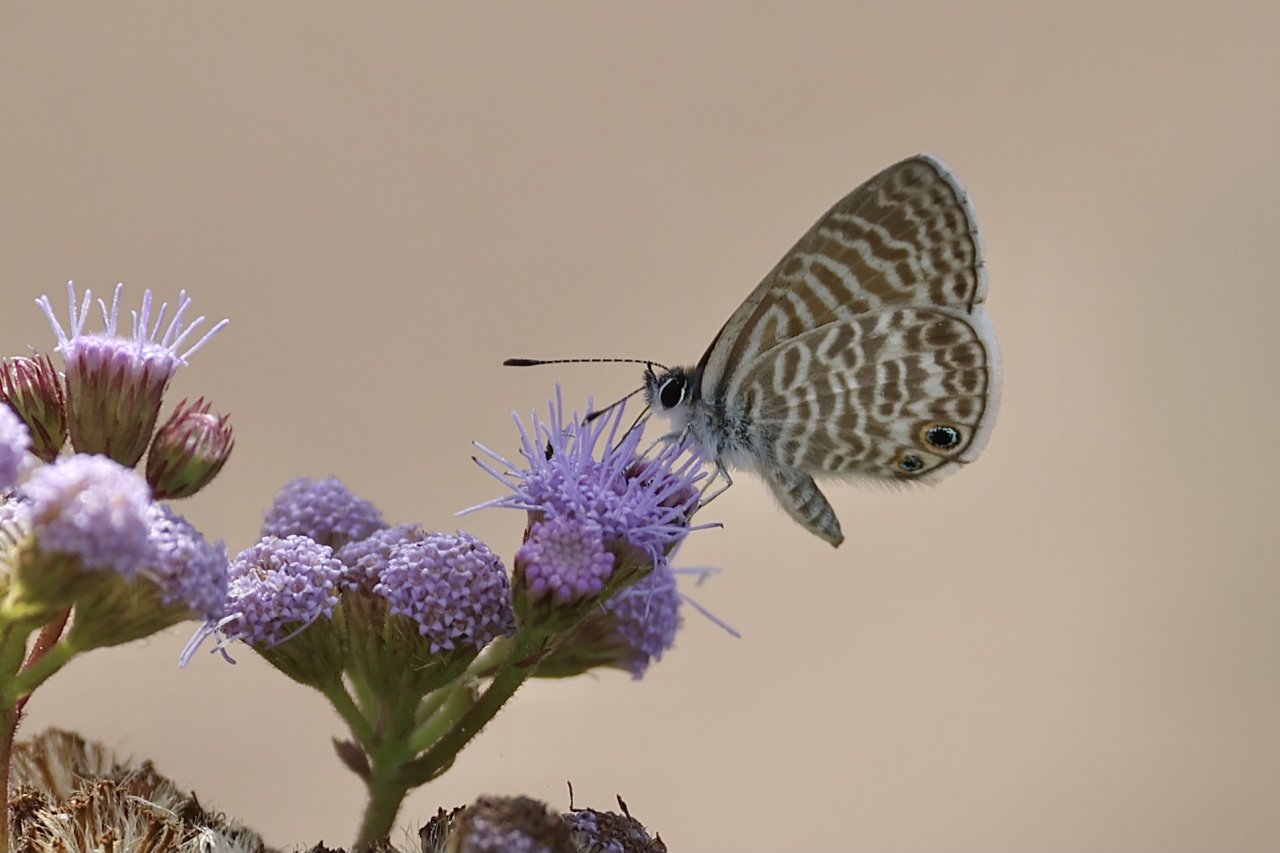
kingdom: Animalia
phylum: Arthropoda
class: Insecta
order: Lepidoptera
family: Lycaenidae
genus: Leptotes
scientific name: Leptotes marina
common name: Marine Blue
